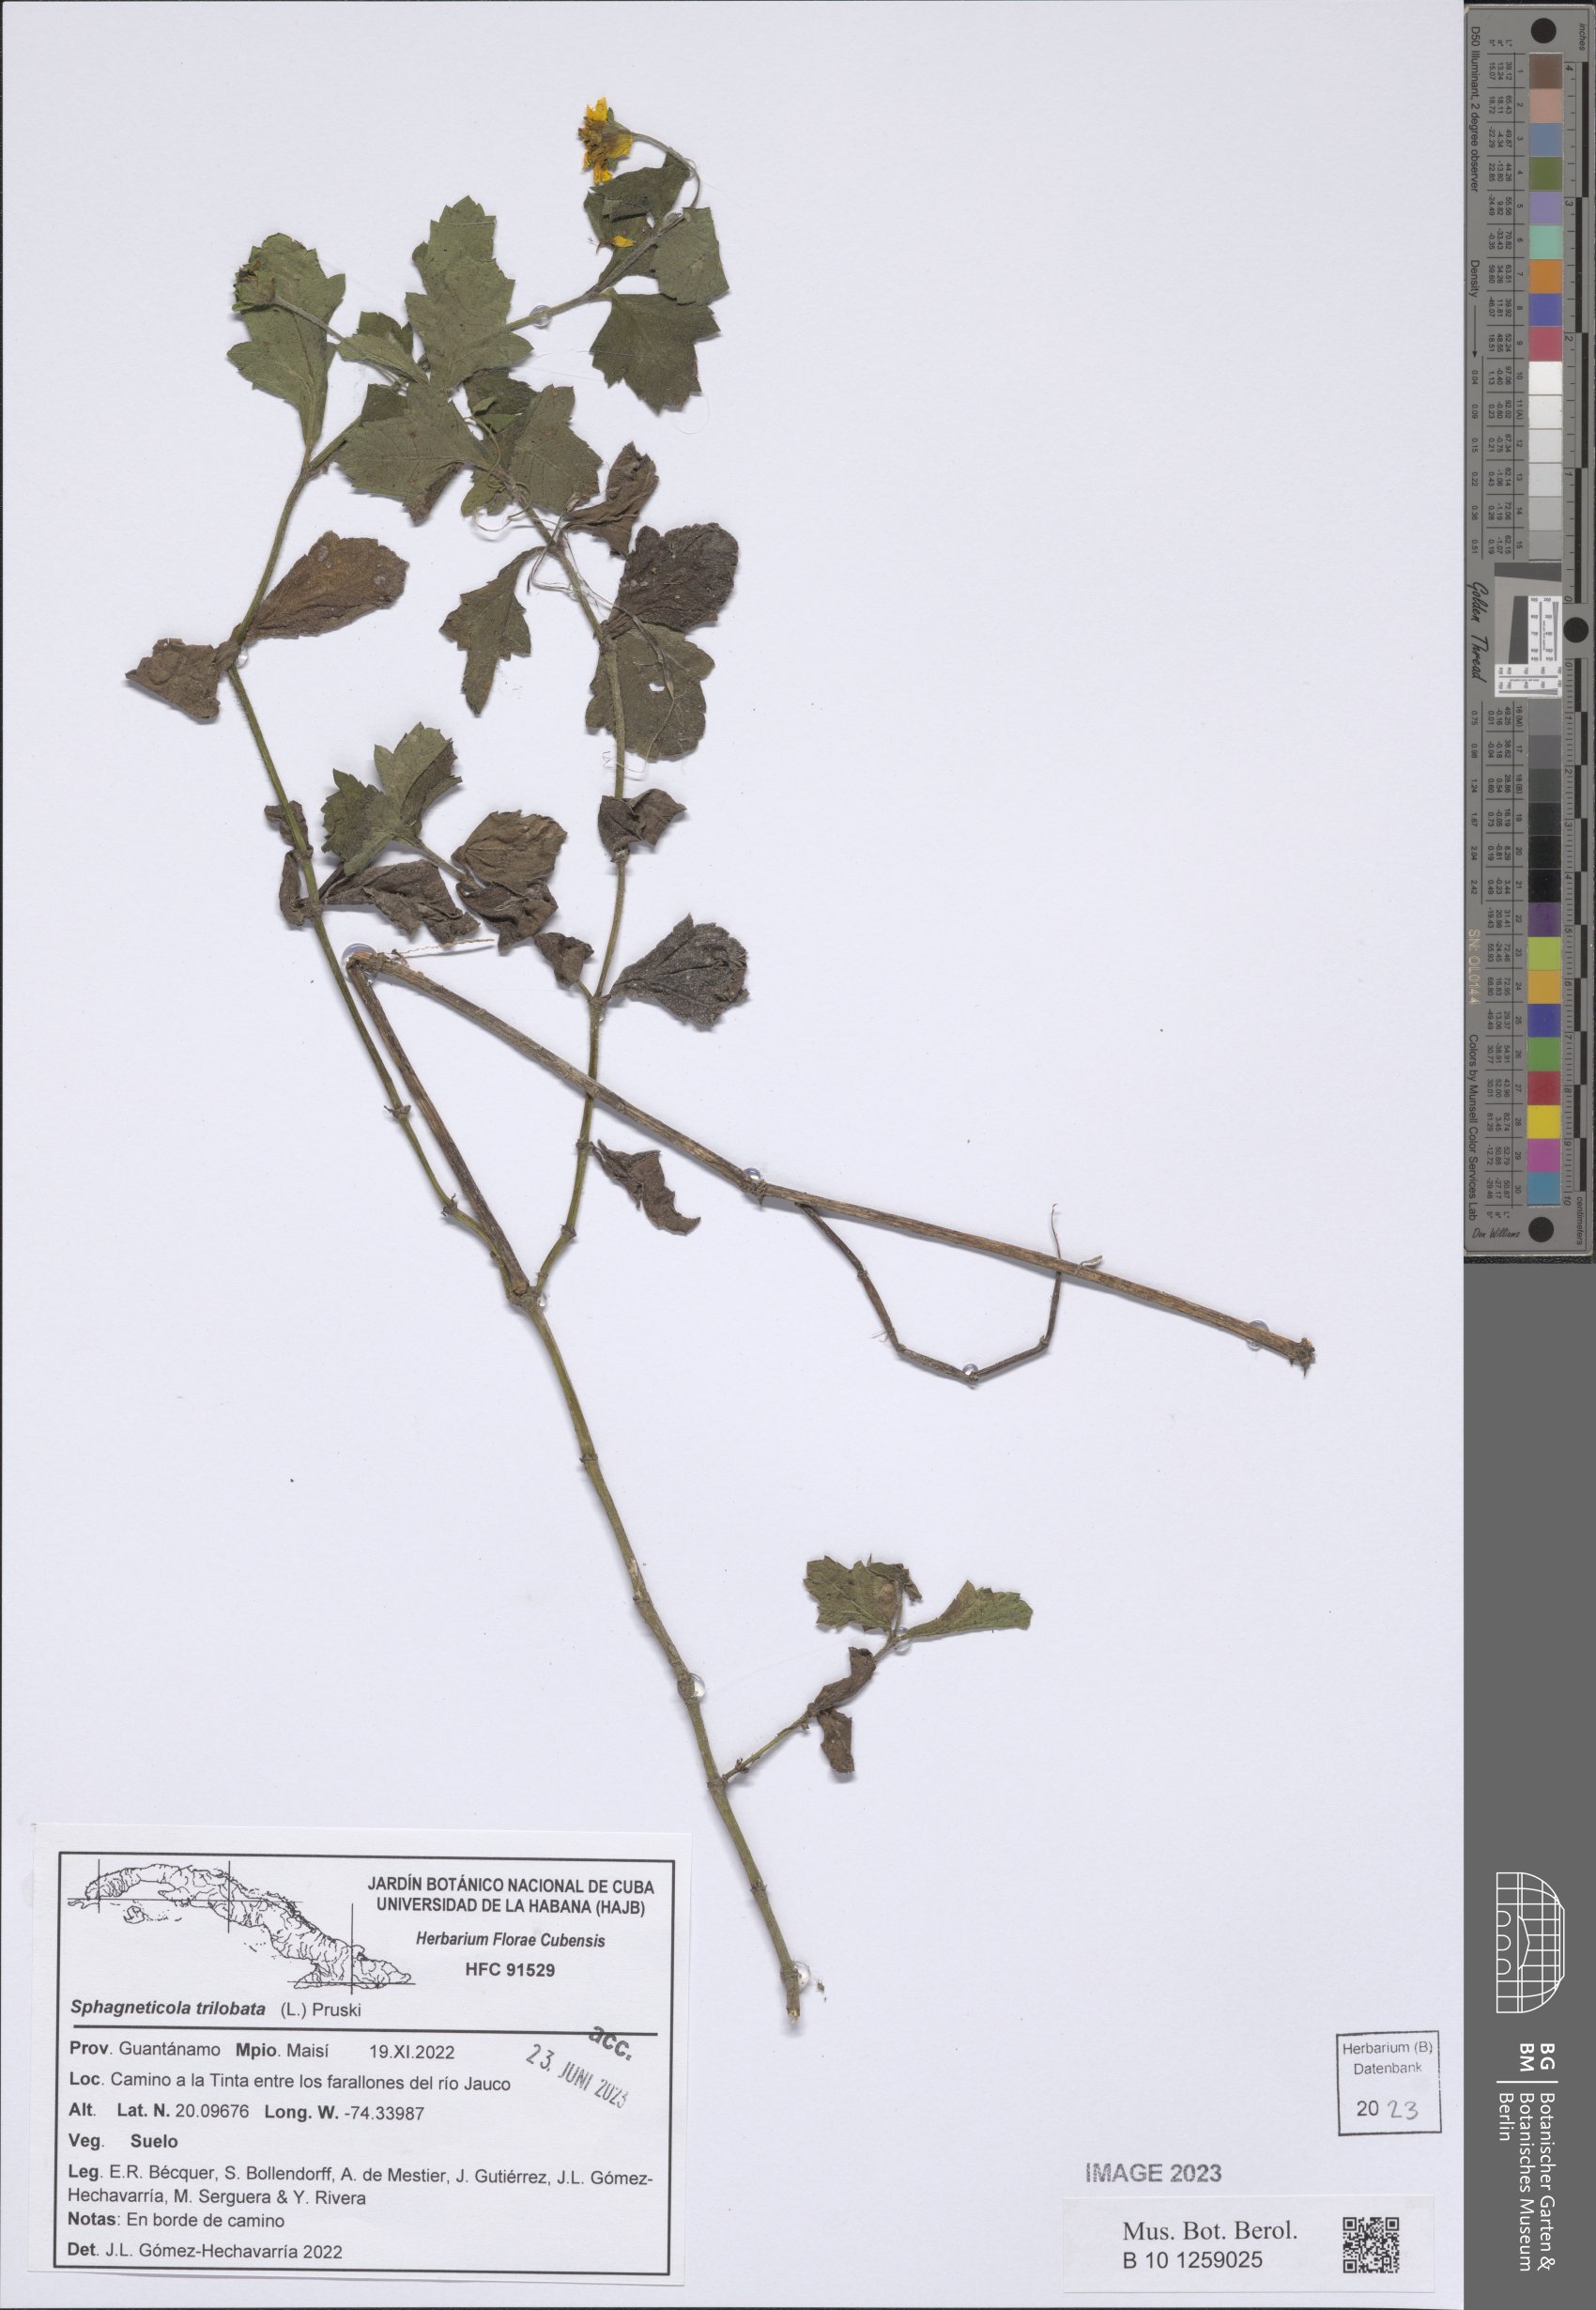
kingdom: Plantae
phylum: Tracheophyta
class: Magnoliopsida
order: Asterales
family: Asteraceae
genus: Sphagneticola
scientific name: Sphagneticola trilobata
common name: Bay biscayne creeping-oxeye
